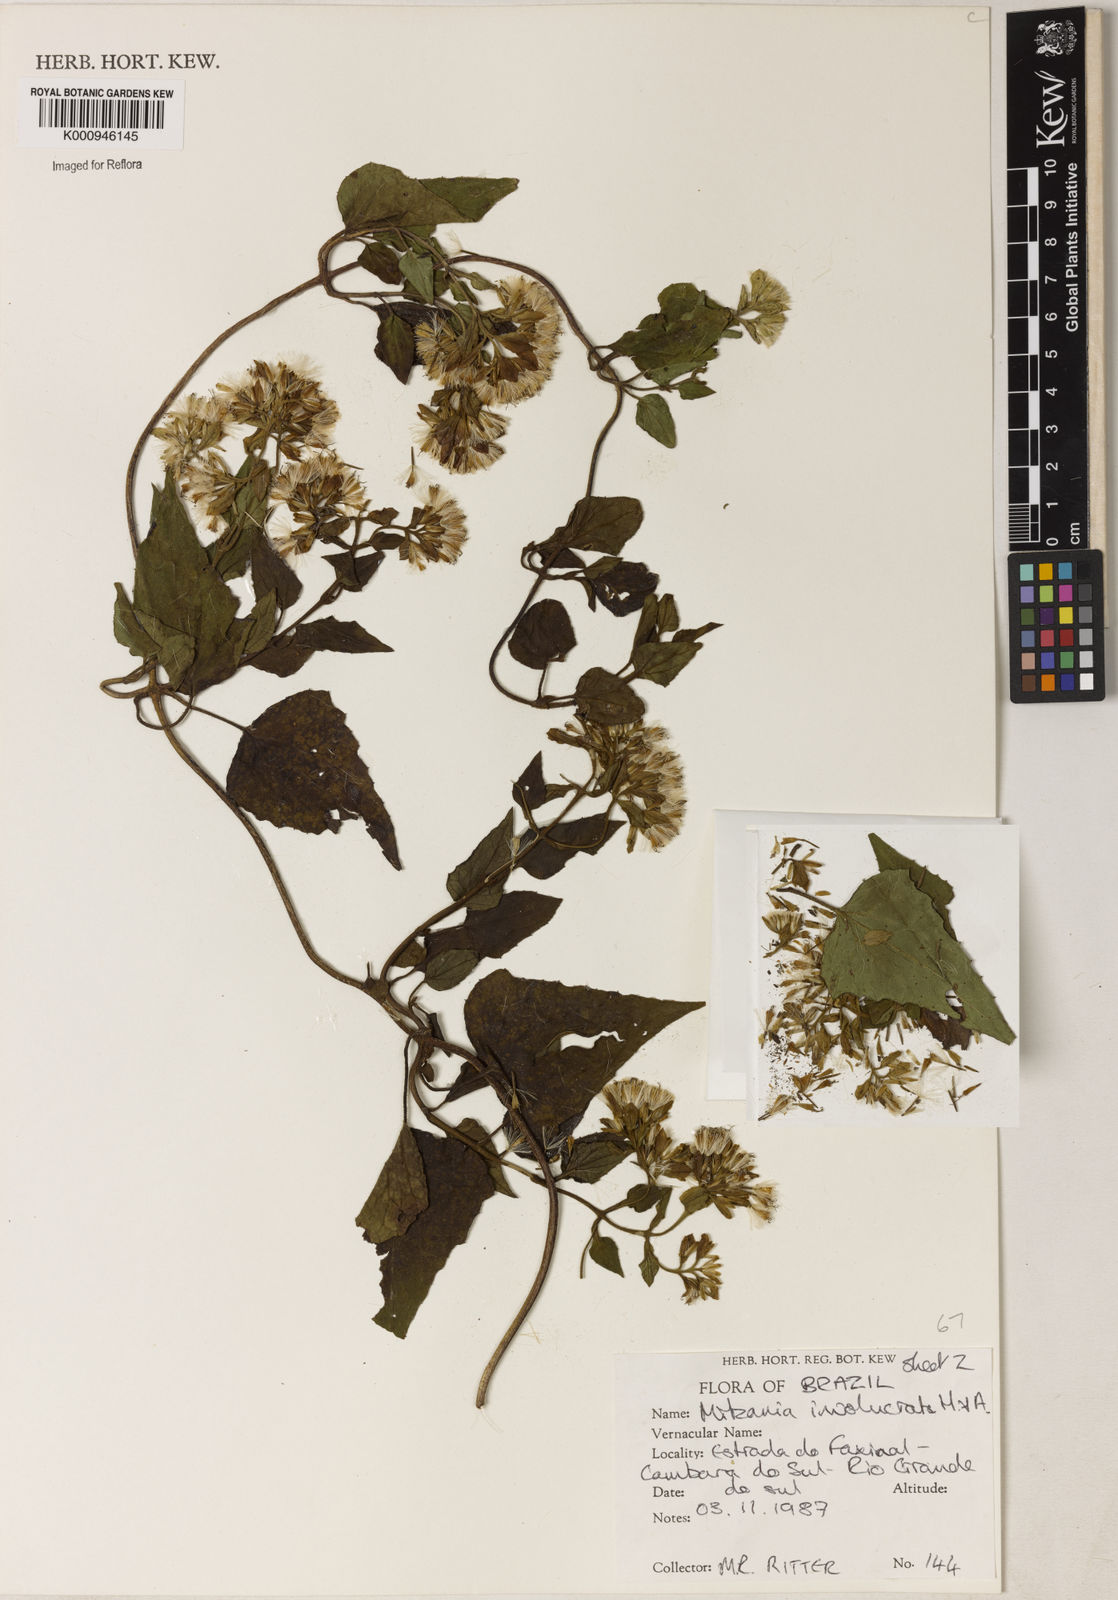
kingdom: Plantae
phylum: Tracheophyta
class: Magnoliopsida
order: Asterales
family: Asteraceae
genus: Mikania
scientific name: Mikania involucrata
